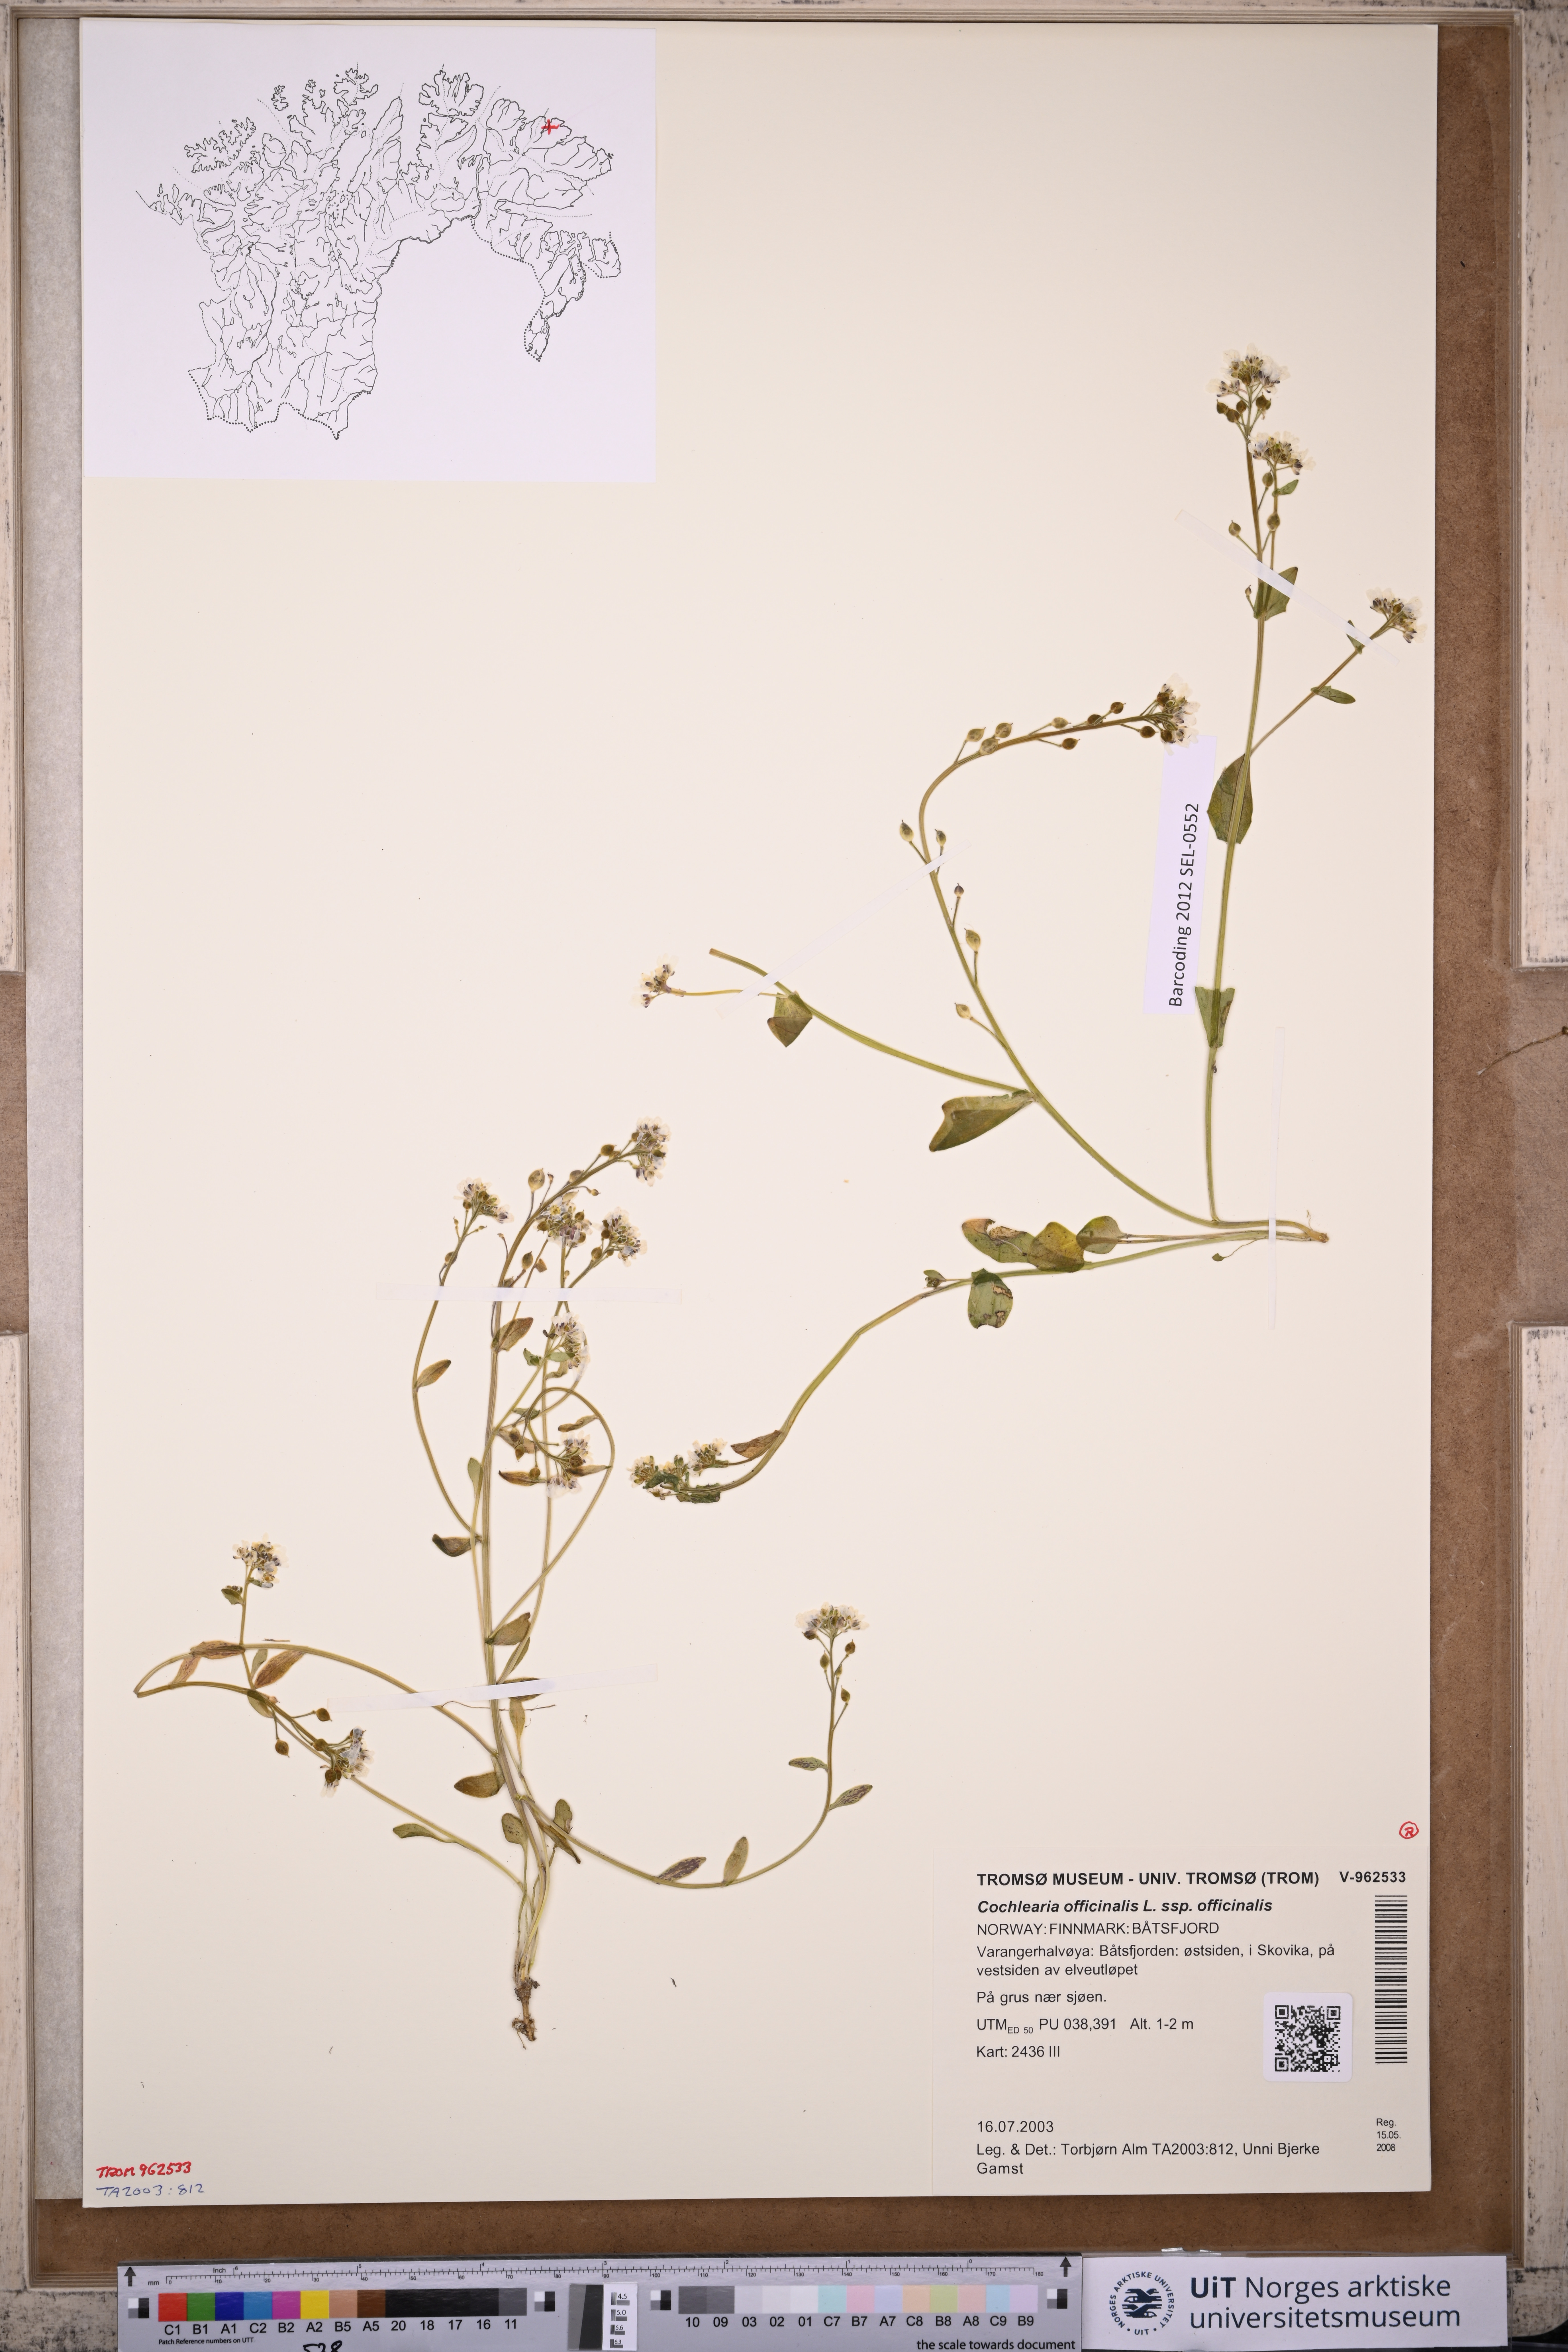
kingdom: Plantae
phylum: Tracheophyta
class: Magnoliopsida
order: Brassicales
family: Brassicaceae
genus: Cochlearia
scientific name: Cochlearia officinalis
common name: Scurvy-grass
